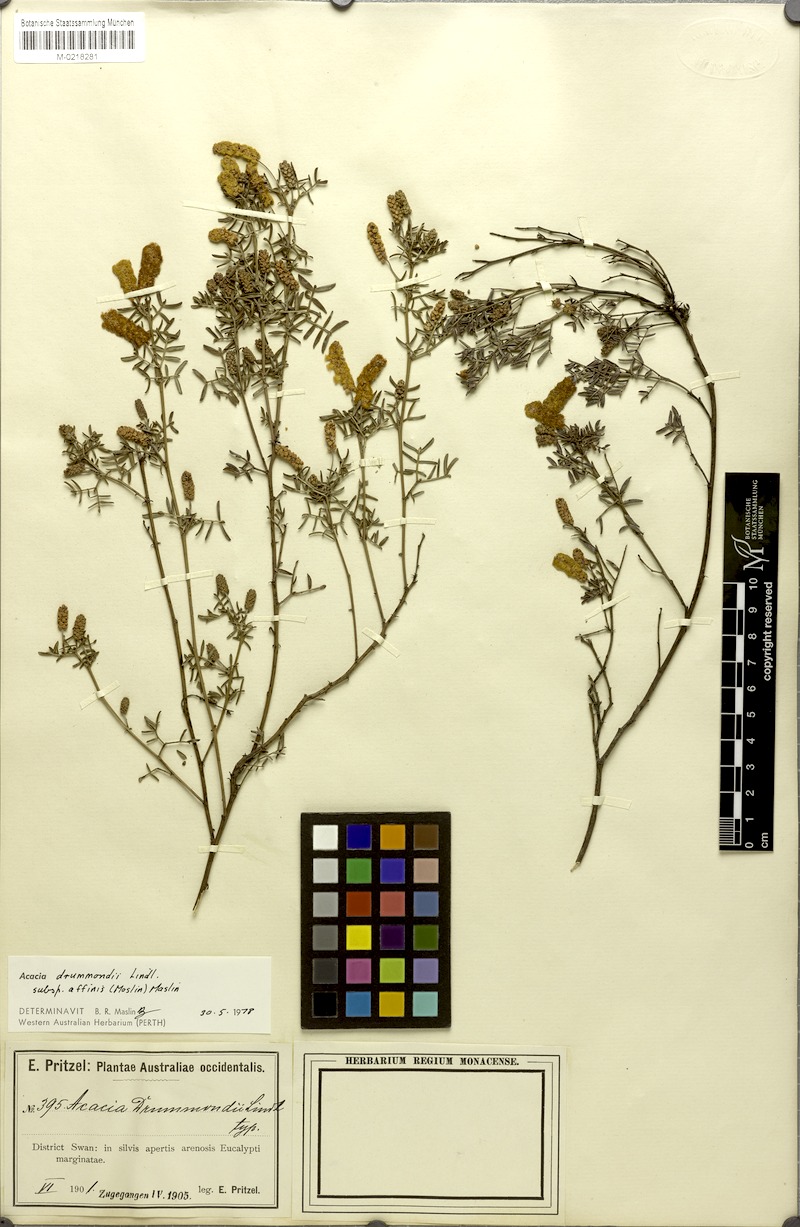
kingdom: Plantae
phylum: Tracheophyta
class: Magnoliopsida
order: Fabales
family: Fabaceae
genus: Acacia
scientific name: Acacia drummondii
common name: Drummond's wattle
